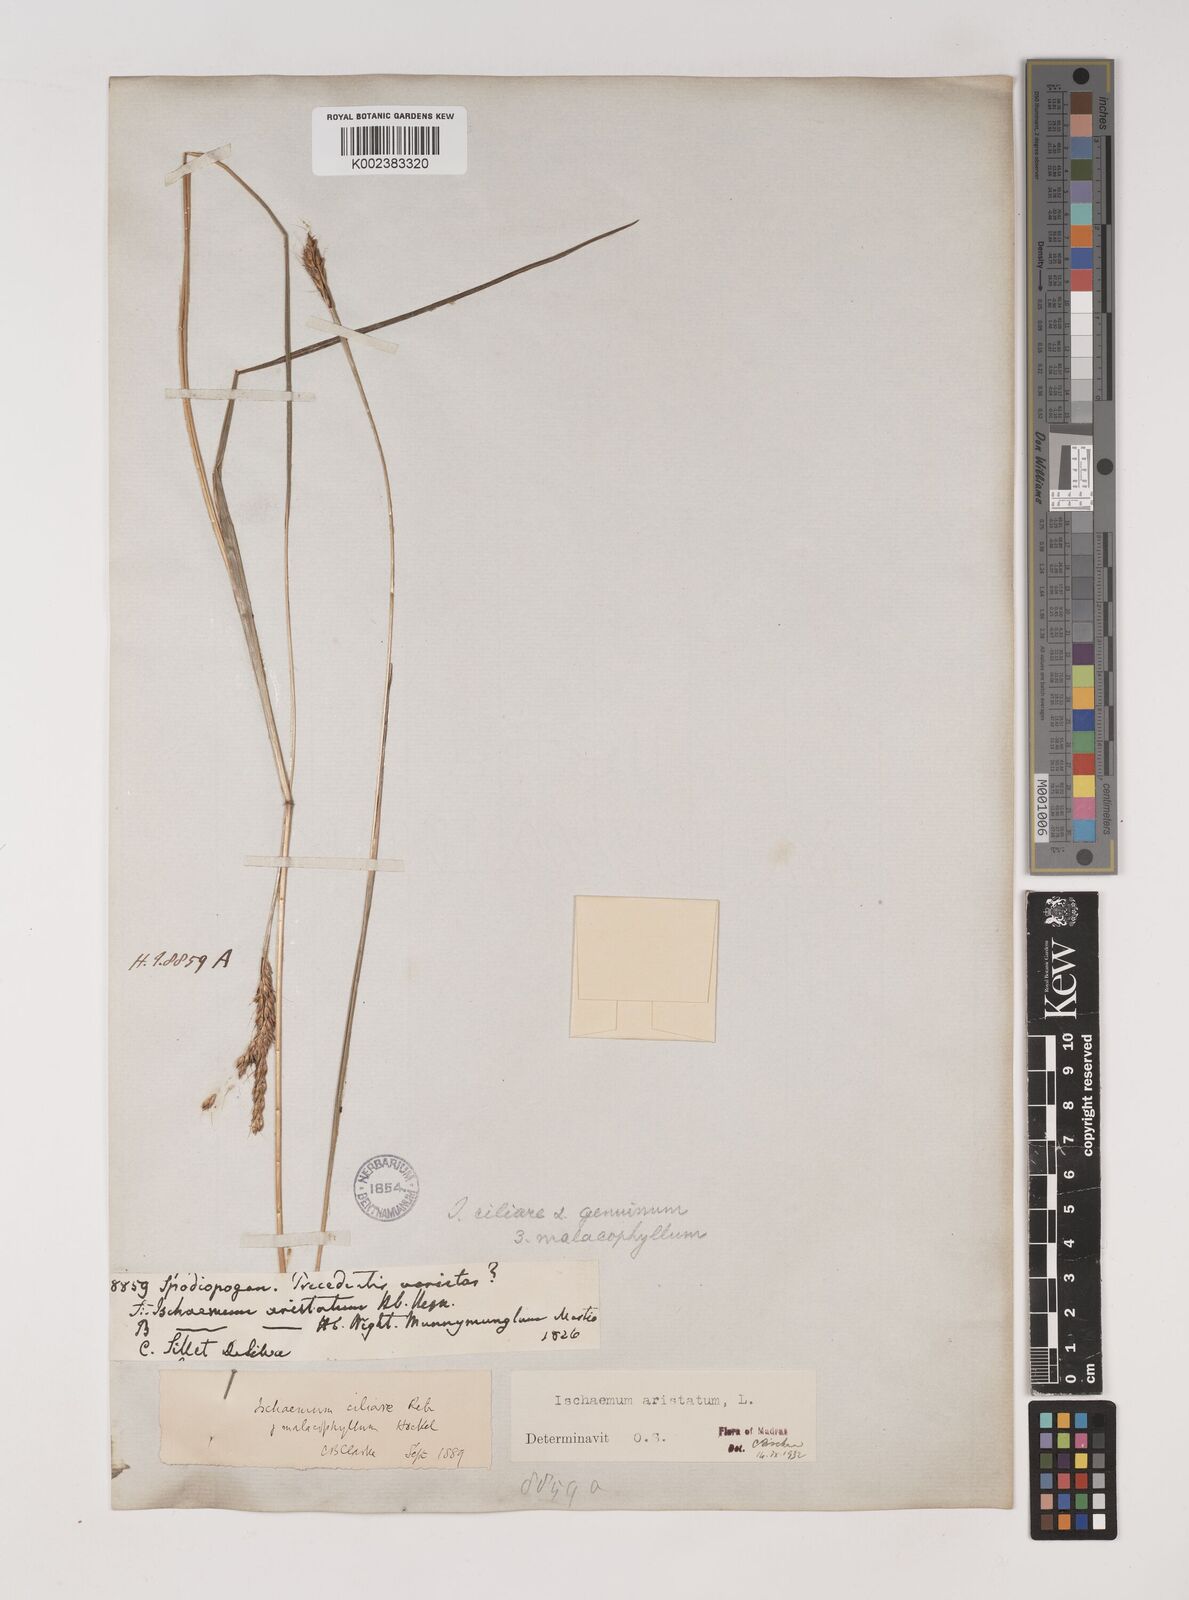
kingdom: Plantae
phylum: Tracheophyta
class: Liliopsida
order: Poales
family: Poaceae
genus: Polytrias
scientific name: Polytrias indica
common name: Indian murainagrass
